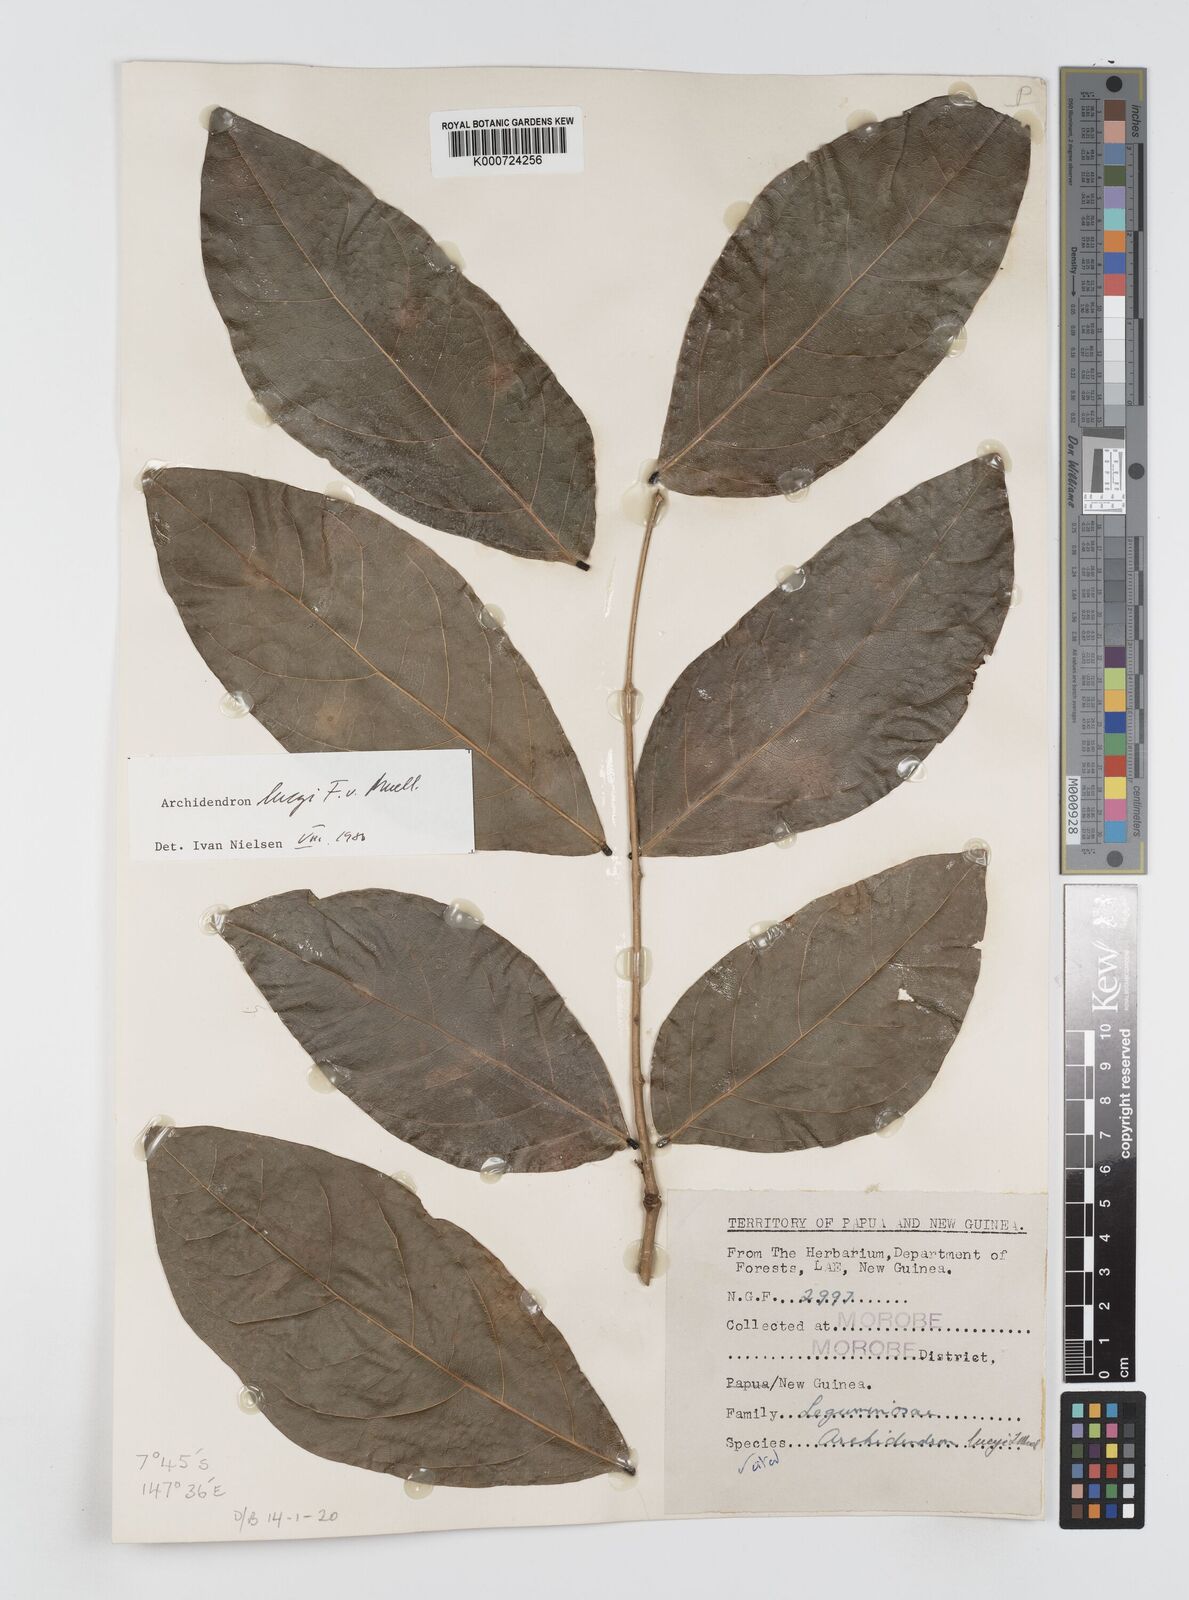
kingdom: Plantae
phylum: Tracheophyta
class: Magnoliopsida
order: Fabales
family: Fabaceae
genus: Archidendron
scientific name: Archidendron lucyi
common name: Scarlet bean
